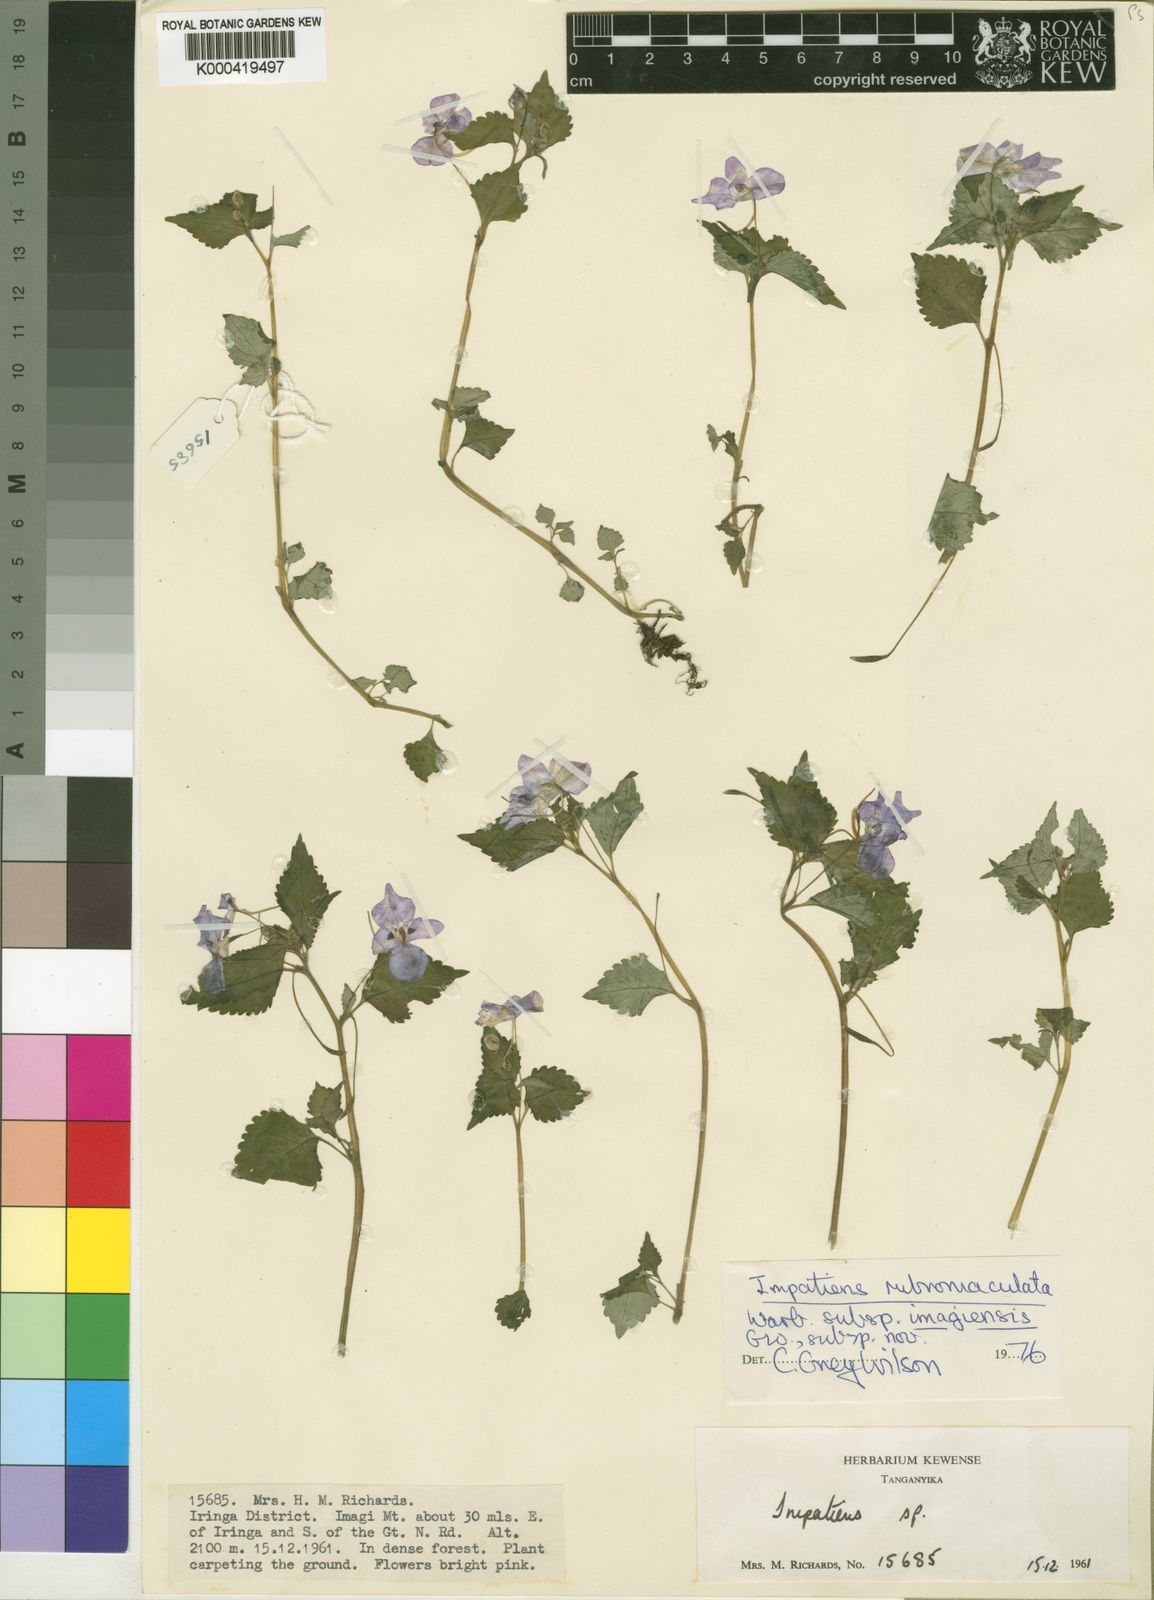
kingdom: Plantae
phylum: Tracheophyta
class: Magnoliopsida
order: Ericales
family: Balsaminaceae
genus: Impatiens
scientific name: Impatiens rubromaculata
